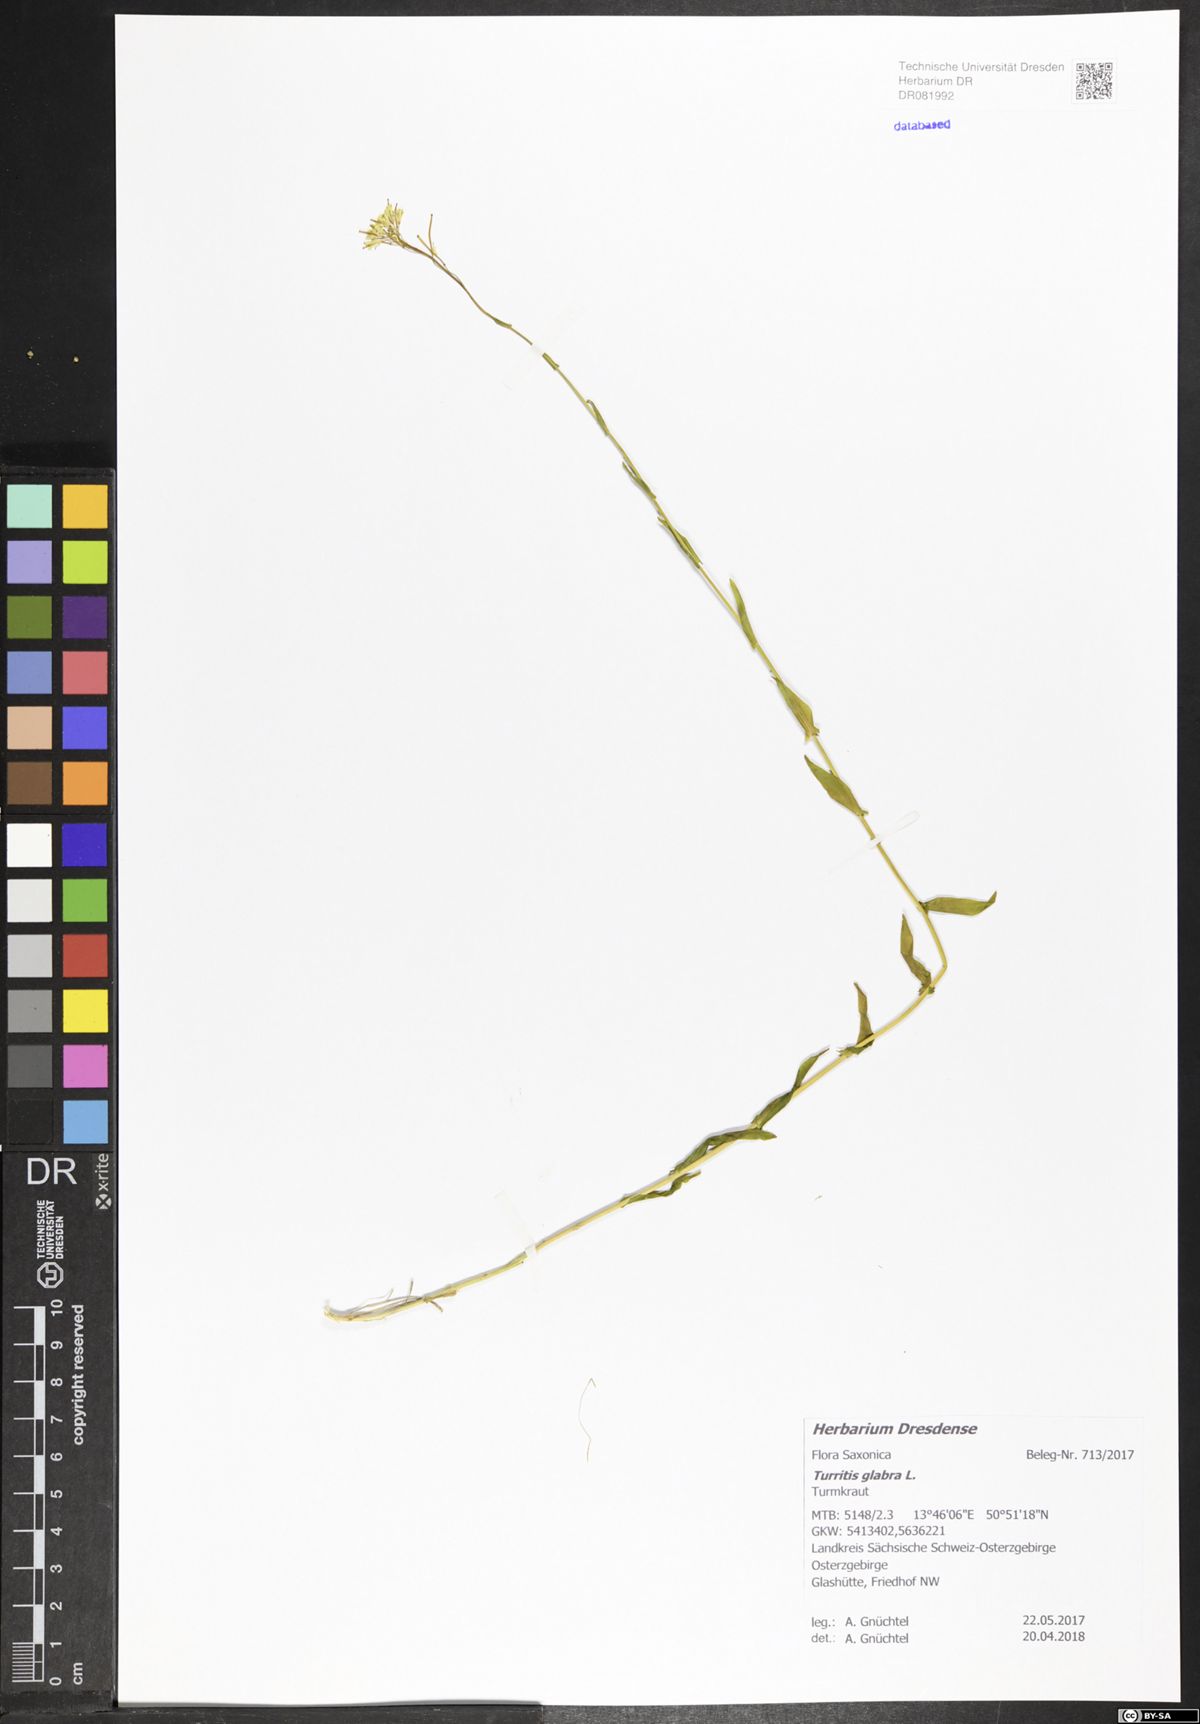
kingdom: Plantae
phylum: Tracheophyta
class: Magnoliopsida
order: Brassicales
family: Brassicaceae
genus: Turritis
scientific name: Turritis glabra
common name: Tower rockcress
